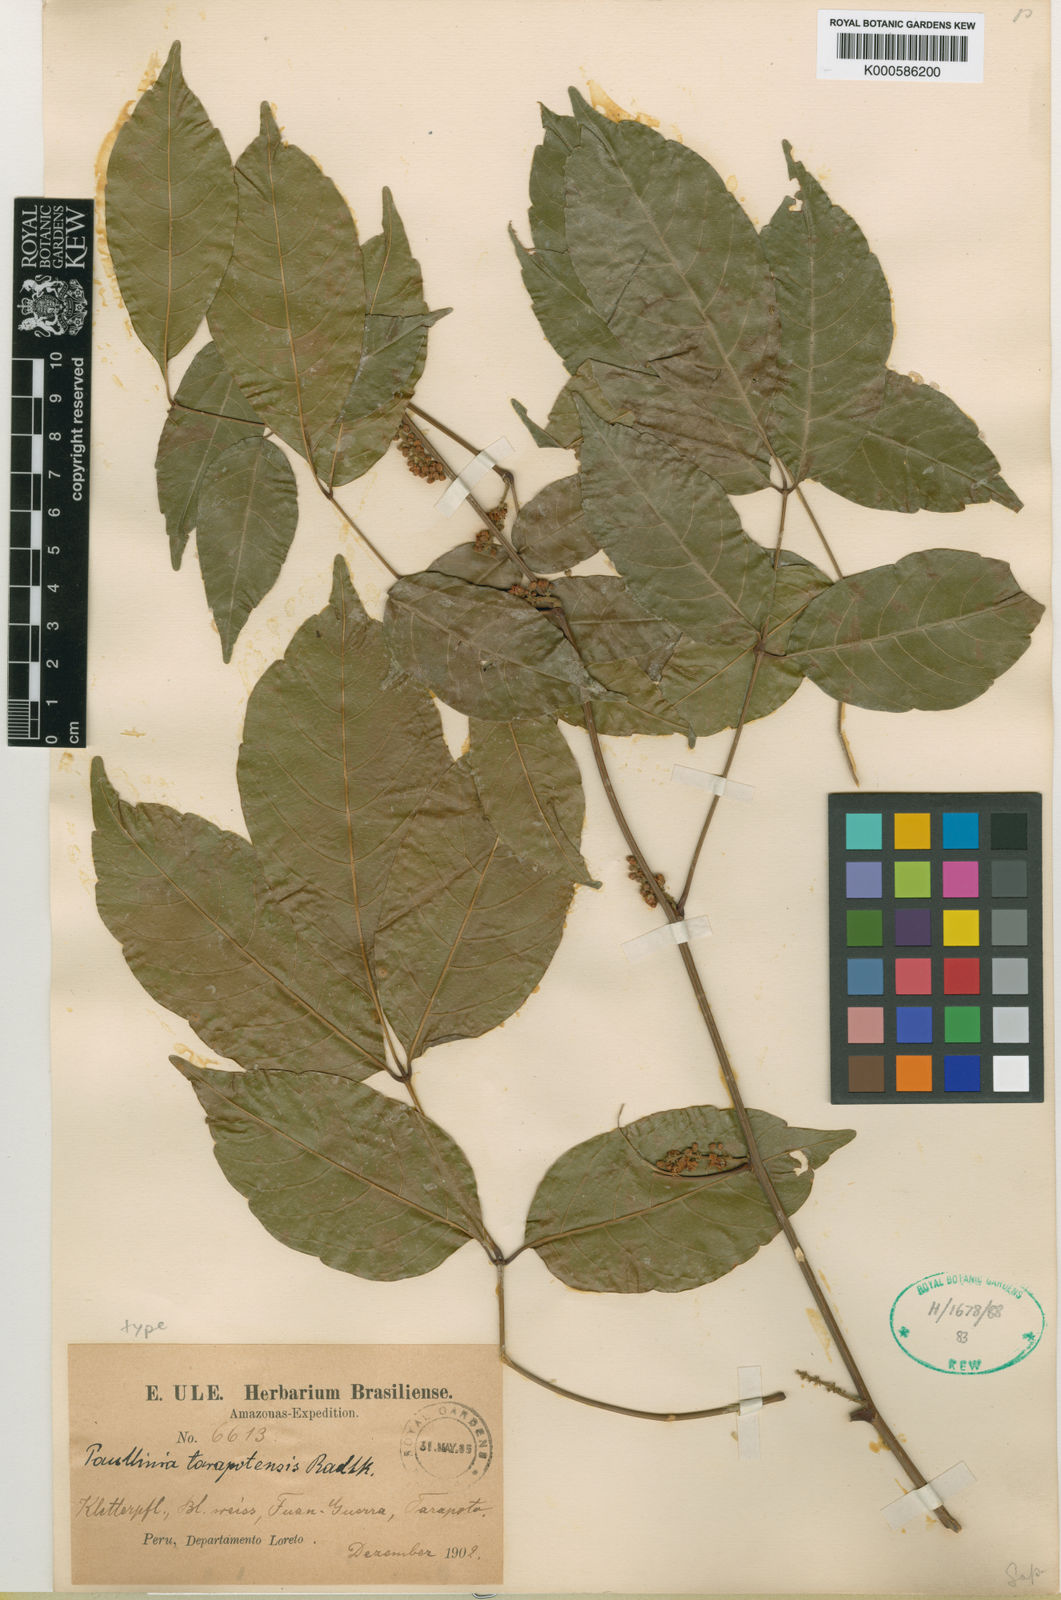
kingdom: Plantae
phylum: Tracheophyta
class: Magnoliopsida
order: Sapindales
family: Sapindaceae
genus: Paullinia
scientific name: Paullinia tarapotensis
